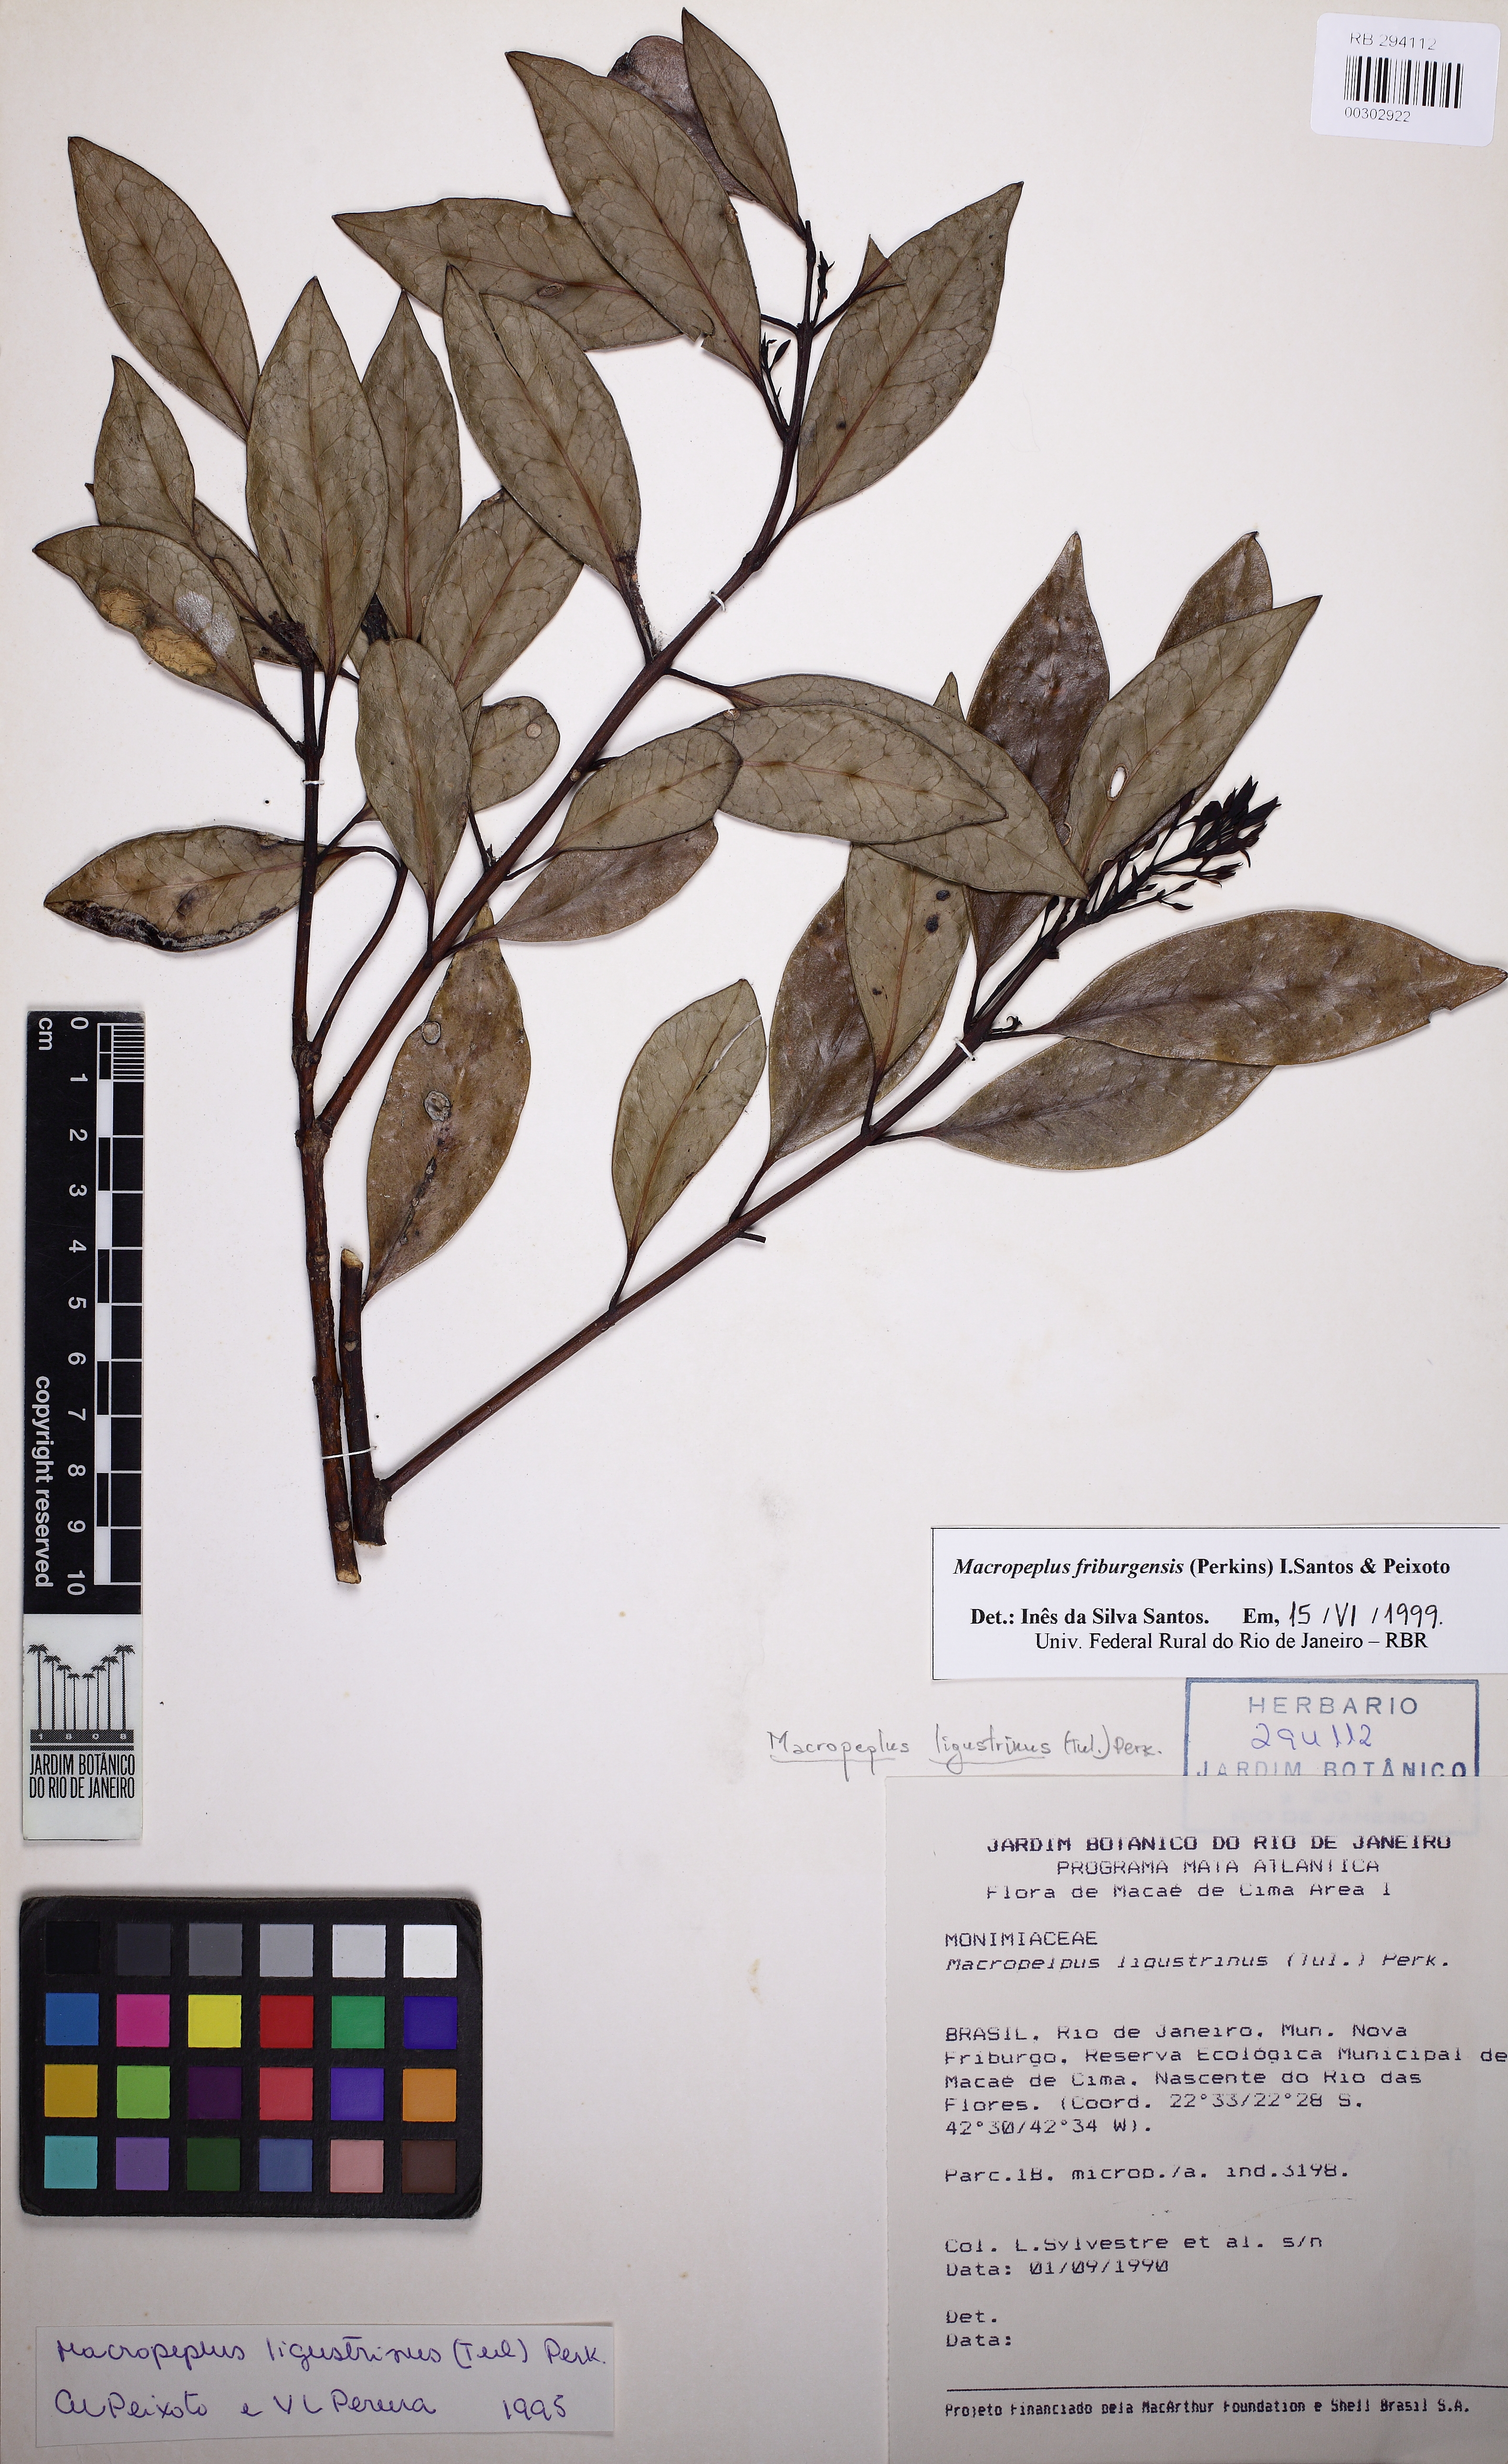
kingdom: Plantae
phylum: Tracheophyta
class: Magnoliopsida
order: Laurales
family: Monimiaceae
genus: Macropeplus
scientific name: Macropeplus friburgensis
